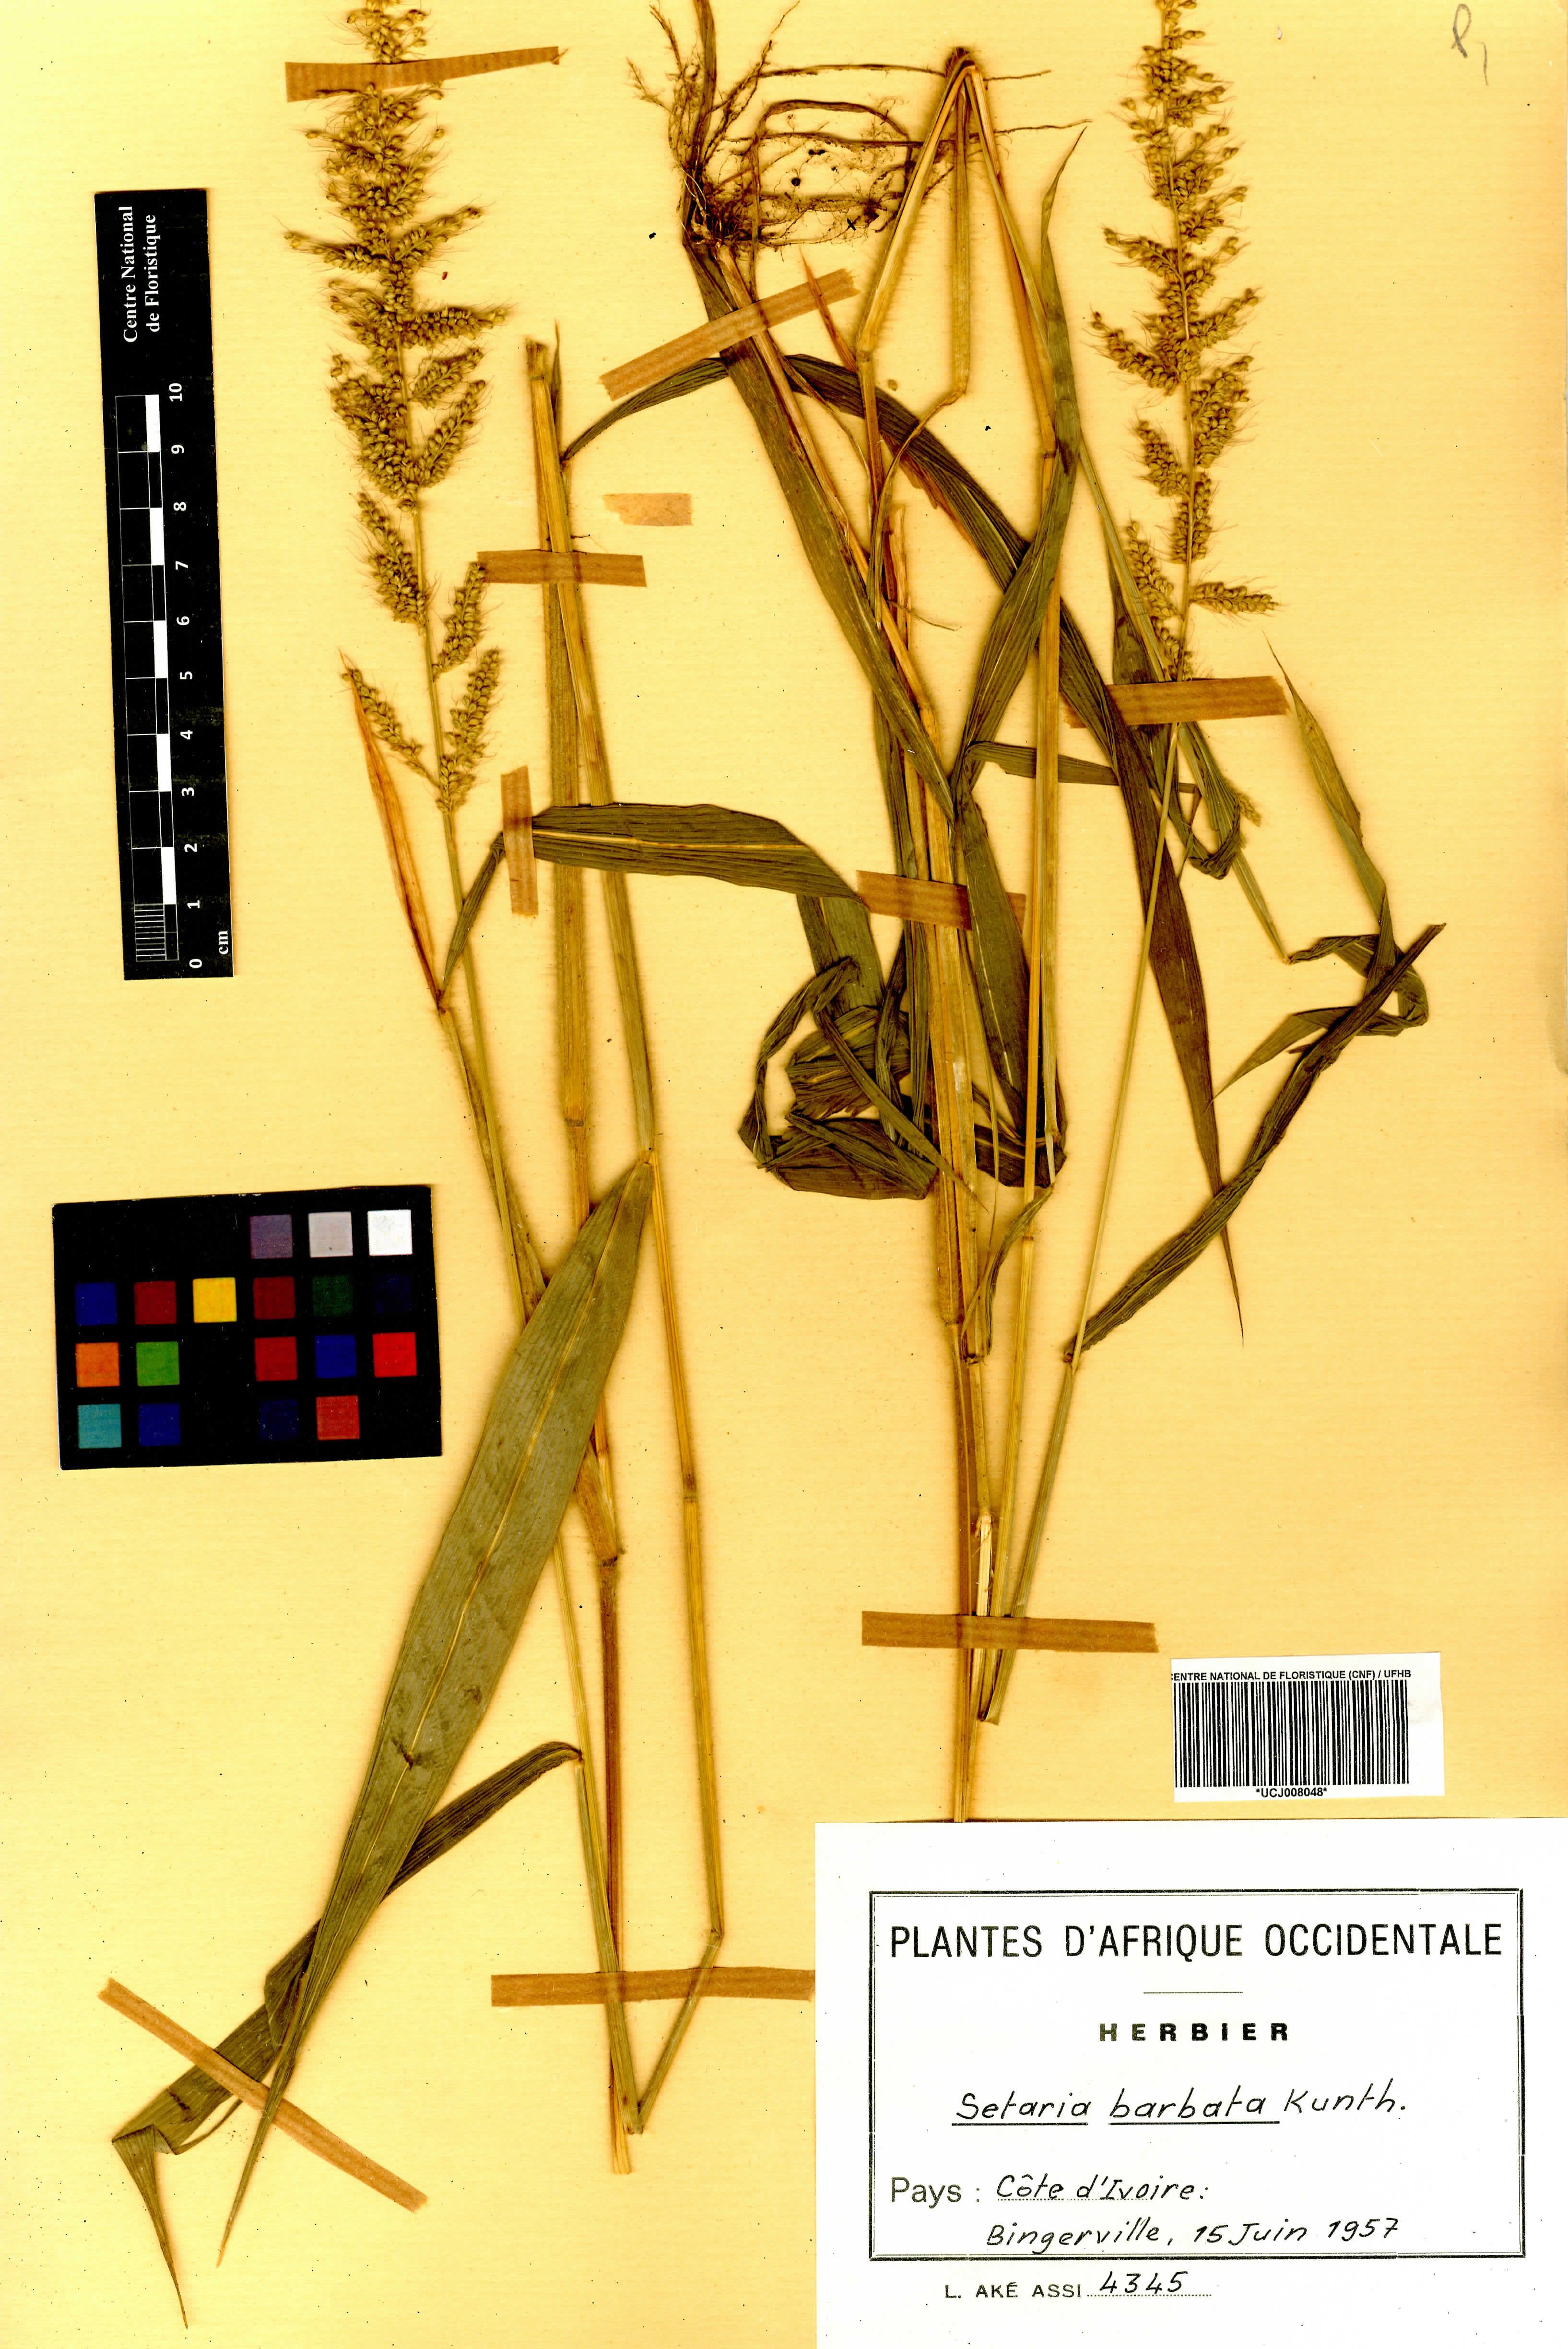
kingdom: Plantae
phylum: Tracheophyta
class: Liliopsida
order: Poales
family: Poaceae
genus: Setaria
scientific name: Setaria barbata
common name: East indian bristlegrass
